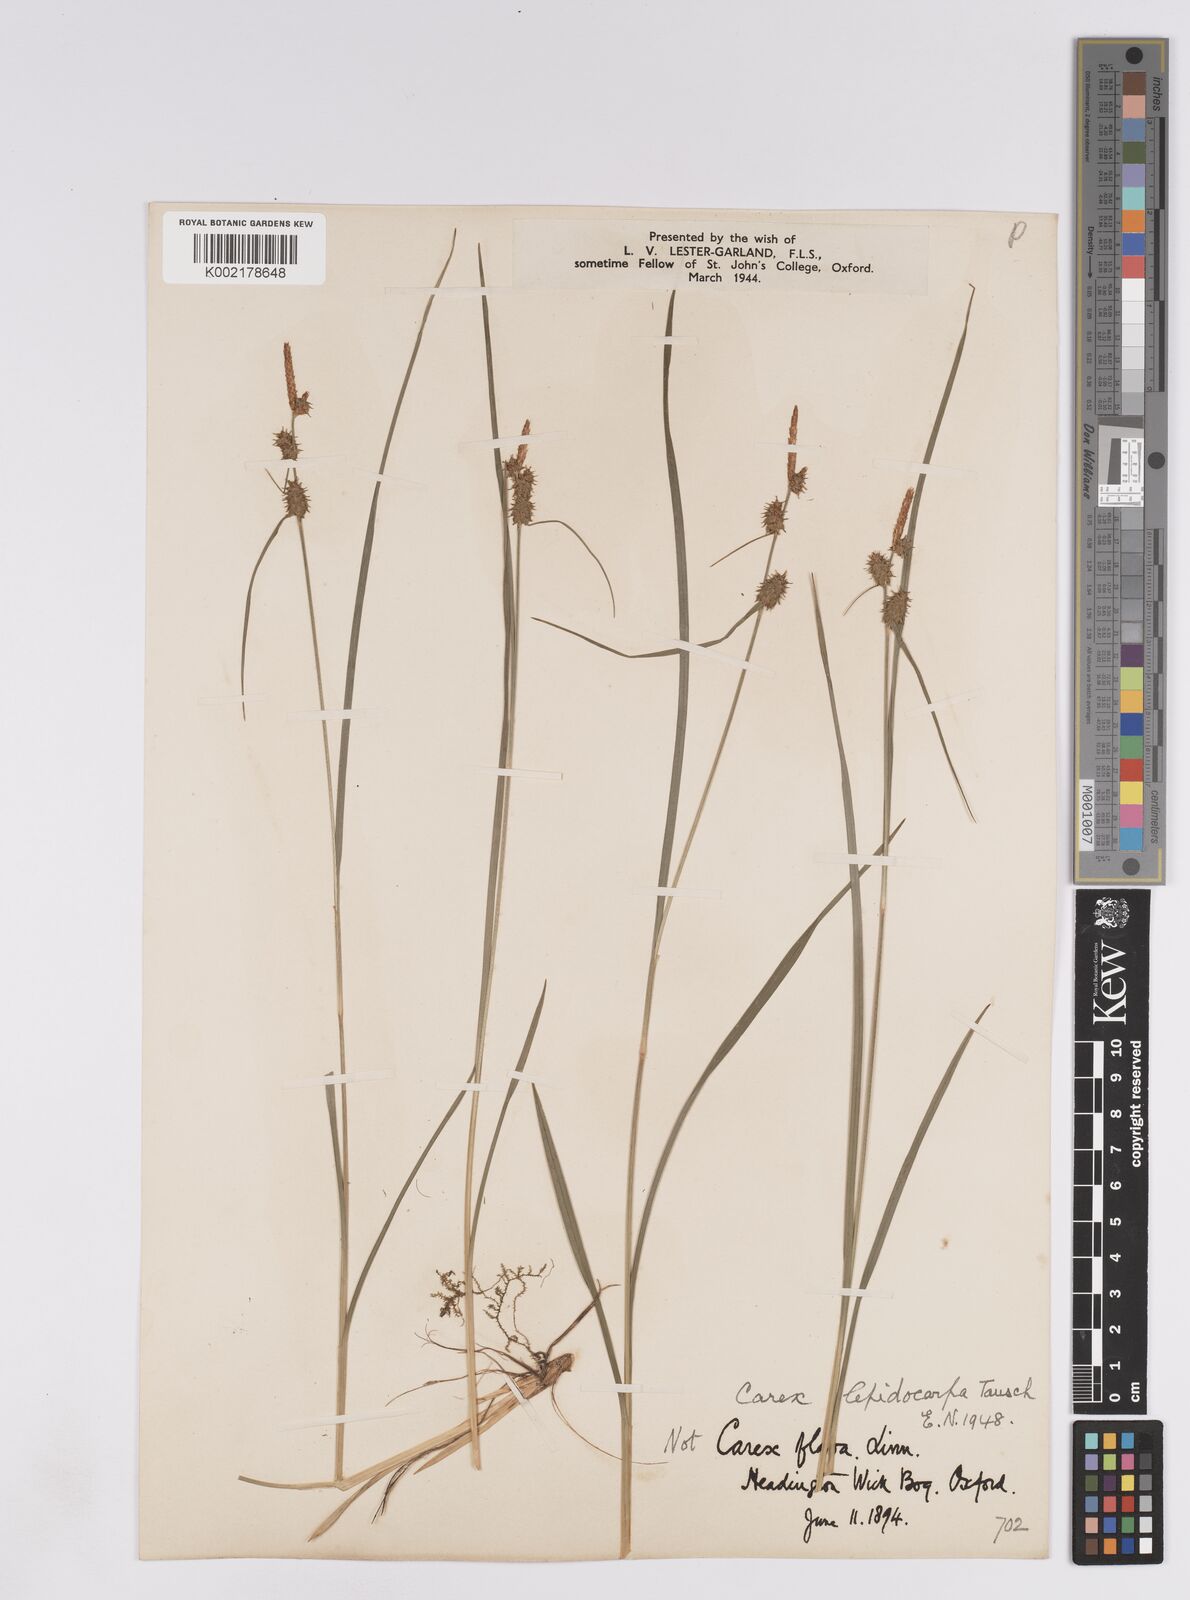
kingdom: Plantae
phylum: Tracheophyta
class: Liliopsida
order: Poales
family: Cyperaceae
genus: Carex
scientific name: Carex lepidocarpa
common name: Long-stalked yellow-sedge
